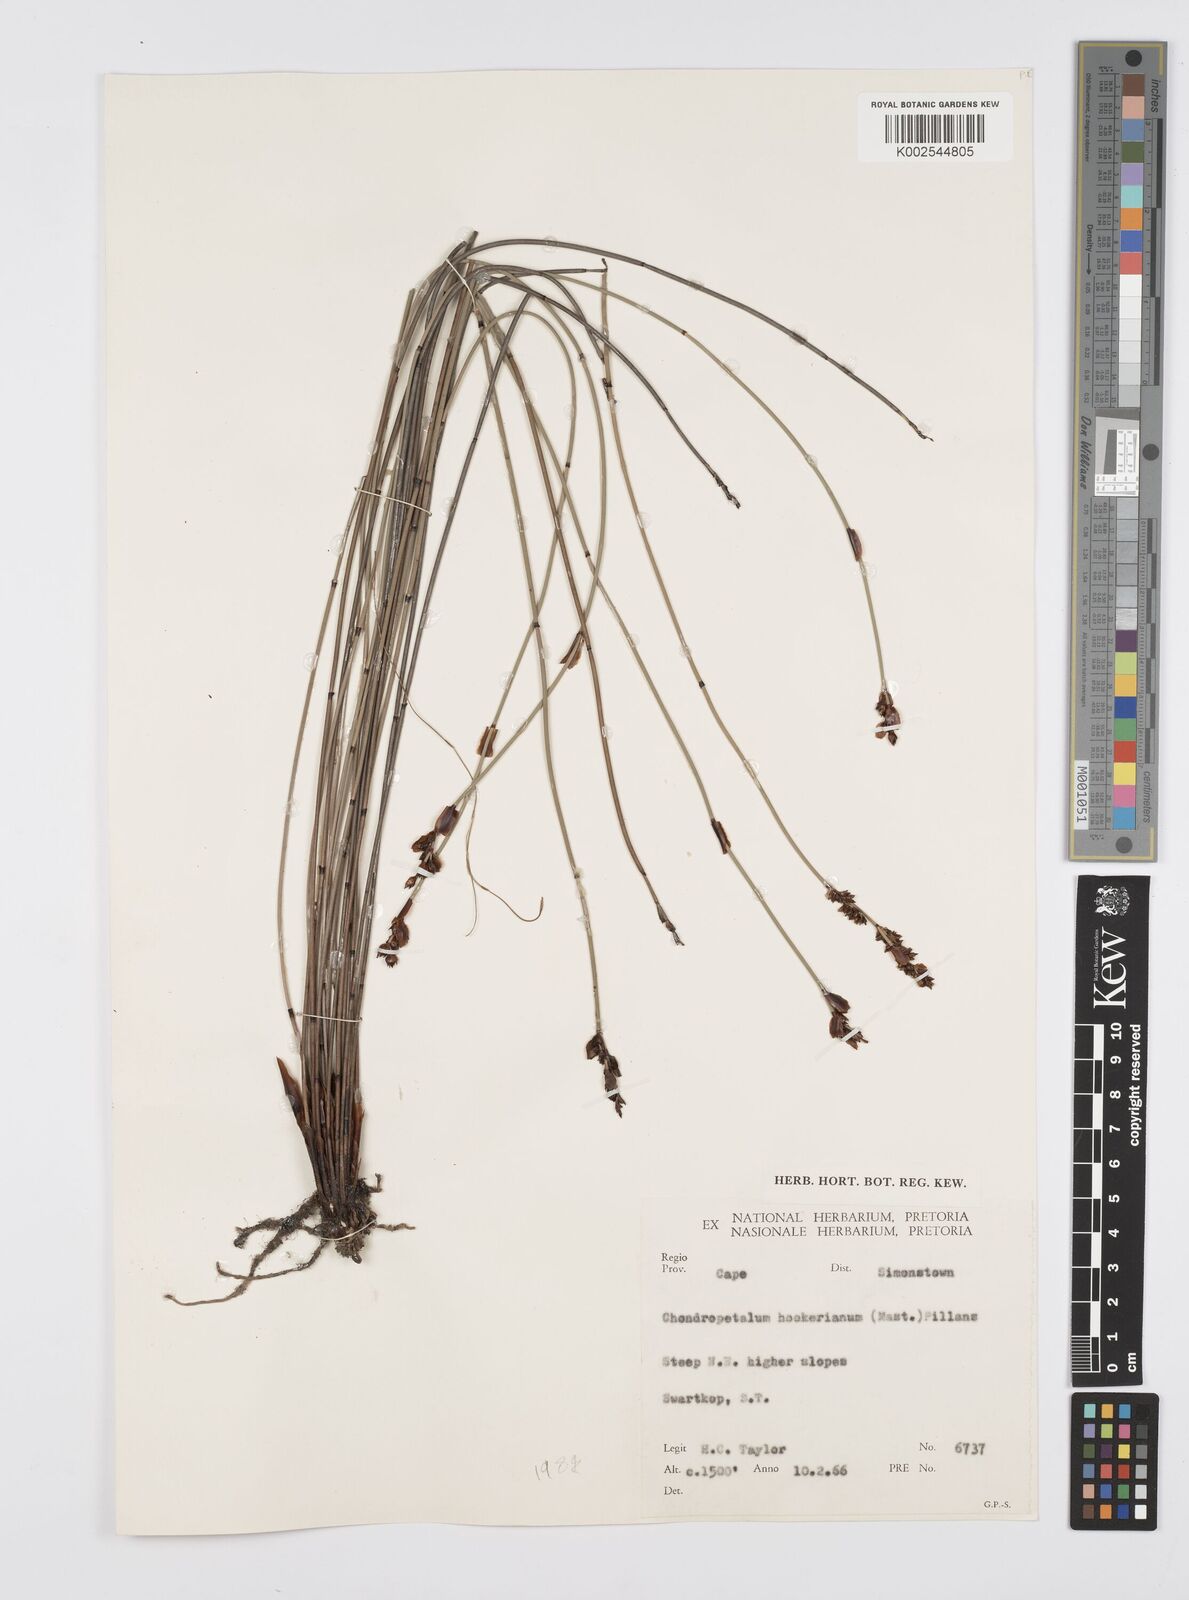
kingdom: Plantae
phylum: Tracheophyta
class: Liliopsida
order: Poales
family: Restionaceae
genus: Elegia
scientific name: Elegia
